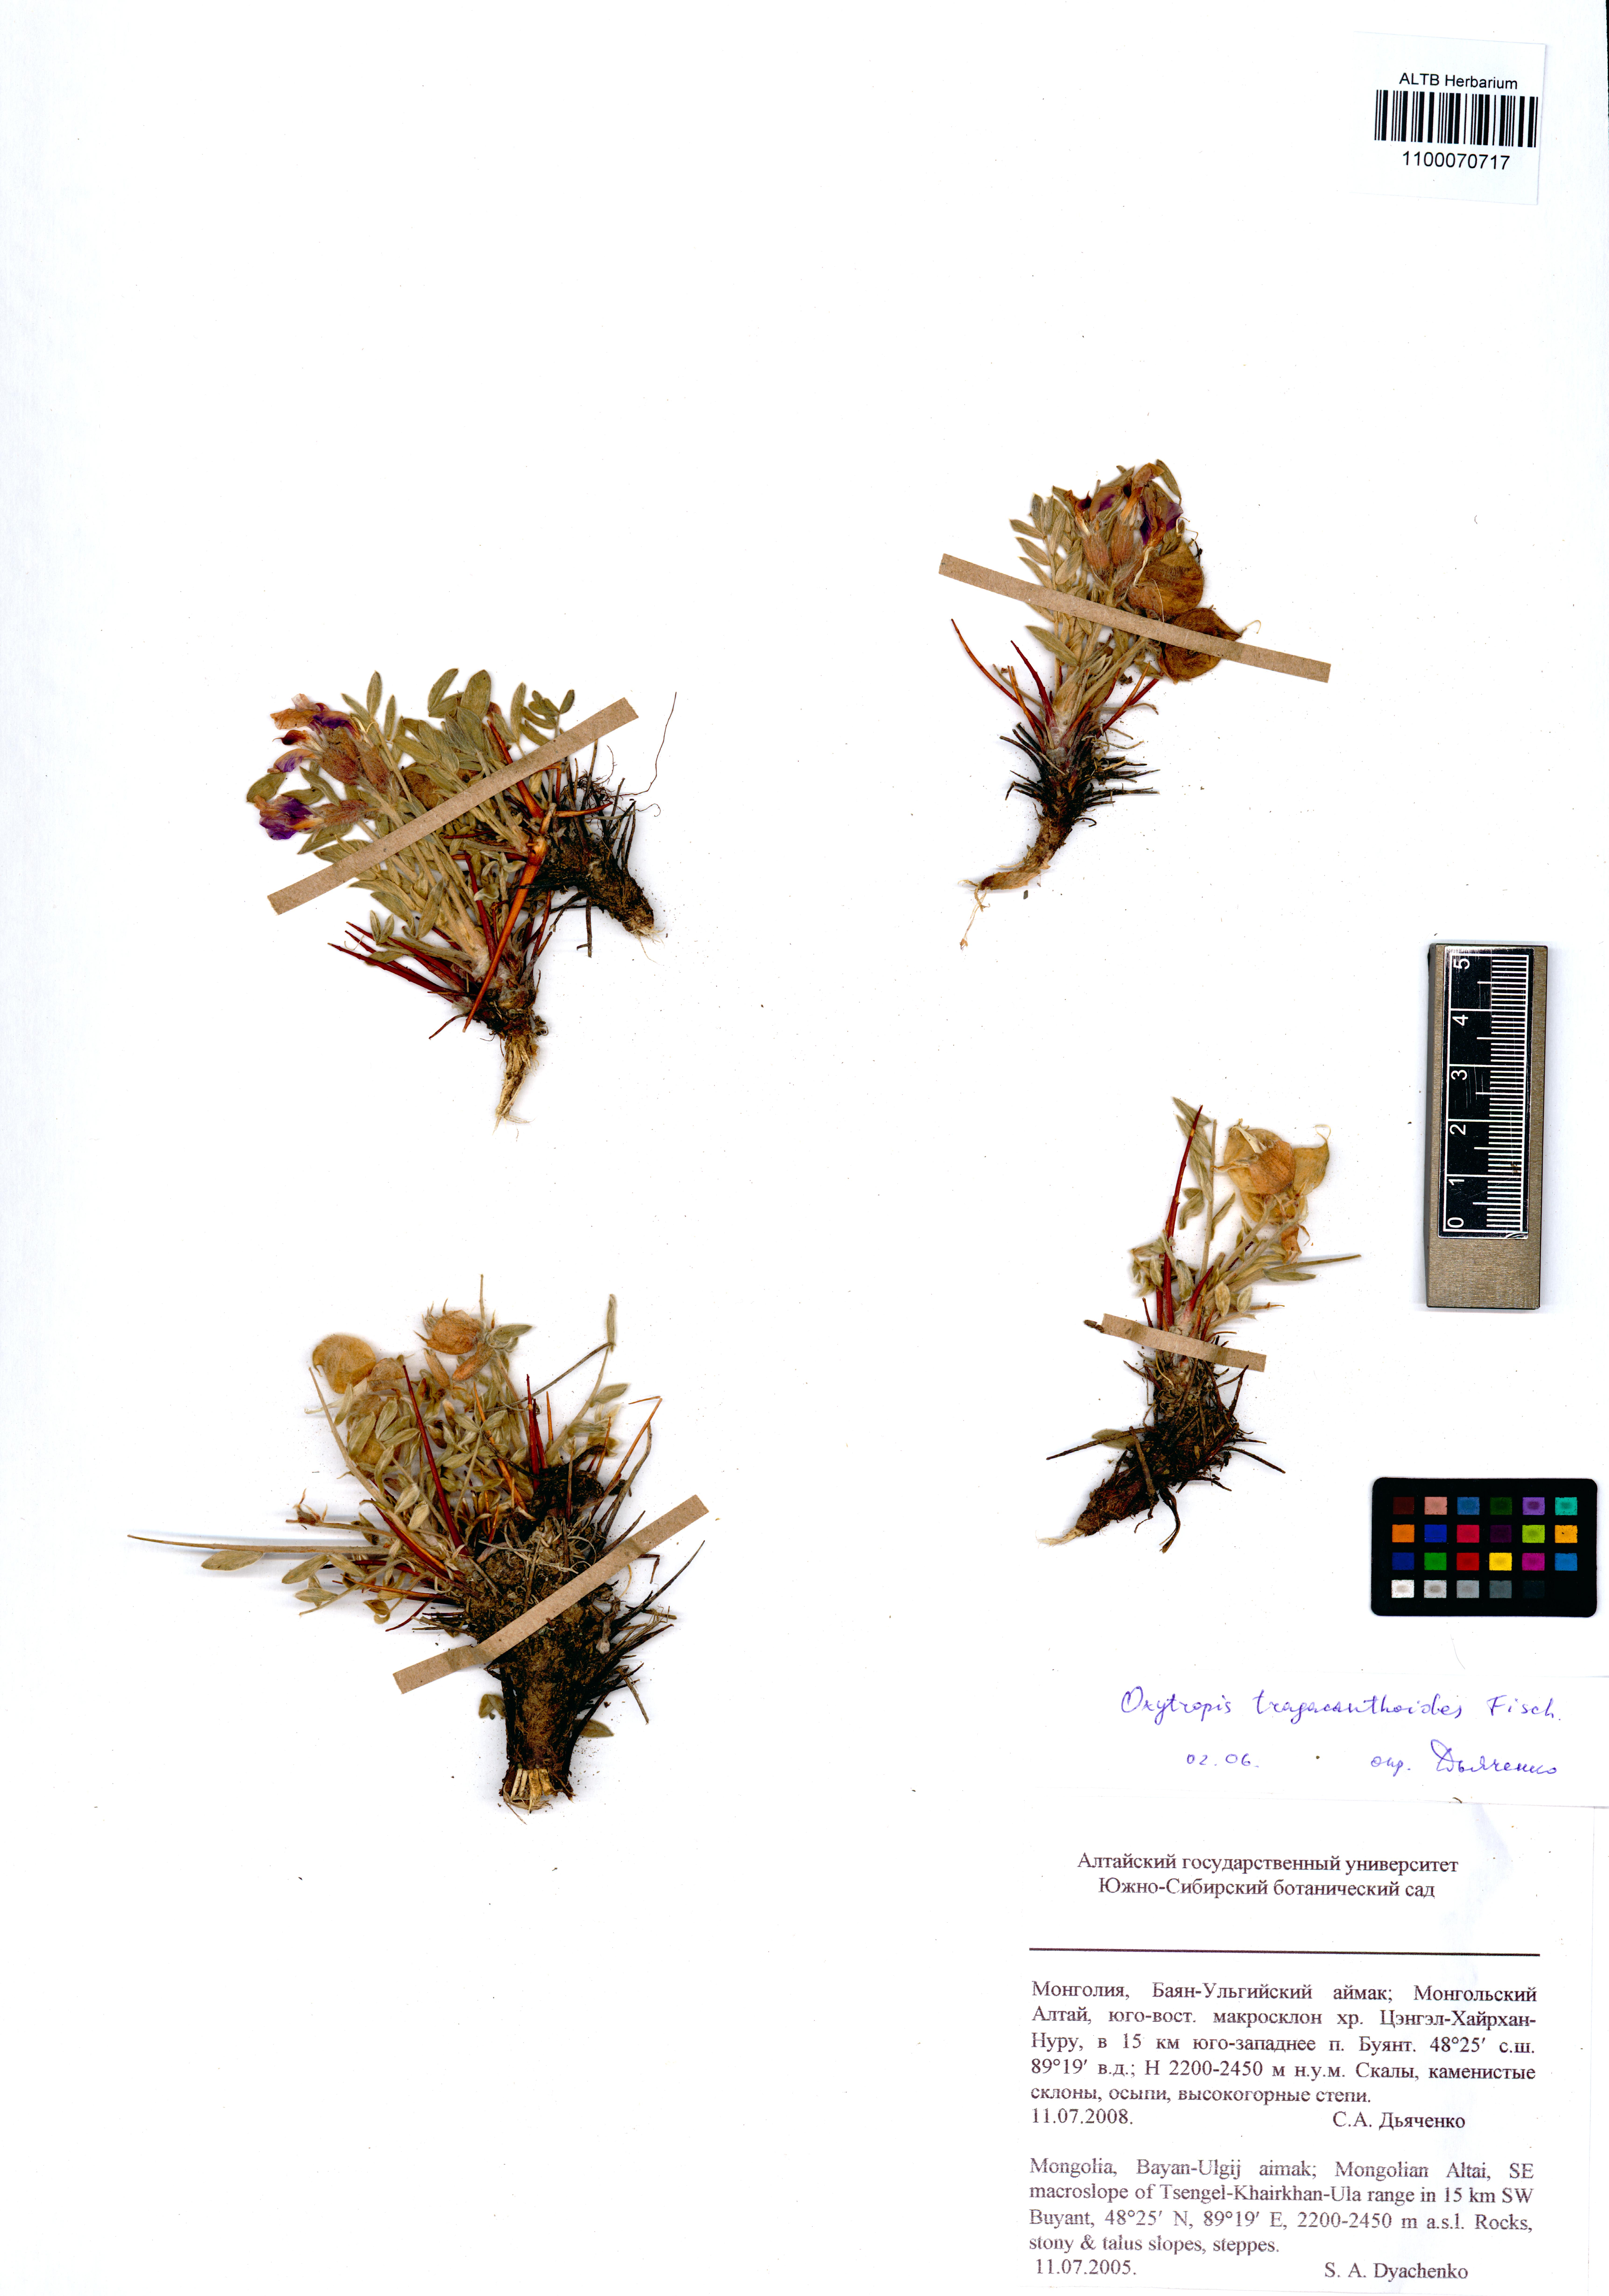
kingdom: Plantae
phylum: Tracheophyta
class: Magnoliopsida
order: Fabales
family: Fabaceae
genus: Oxytropis
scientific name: Oxytropis tragacanthoides
